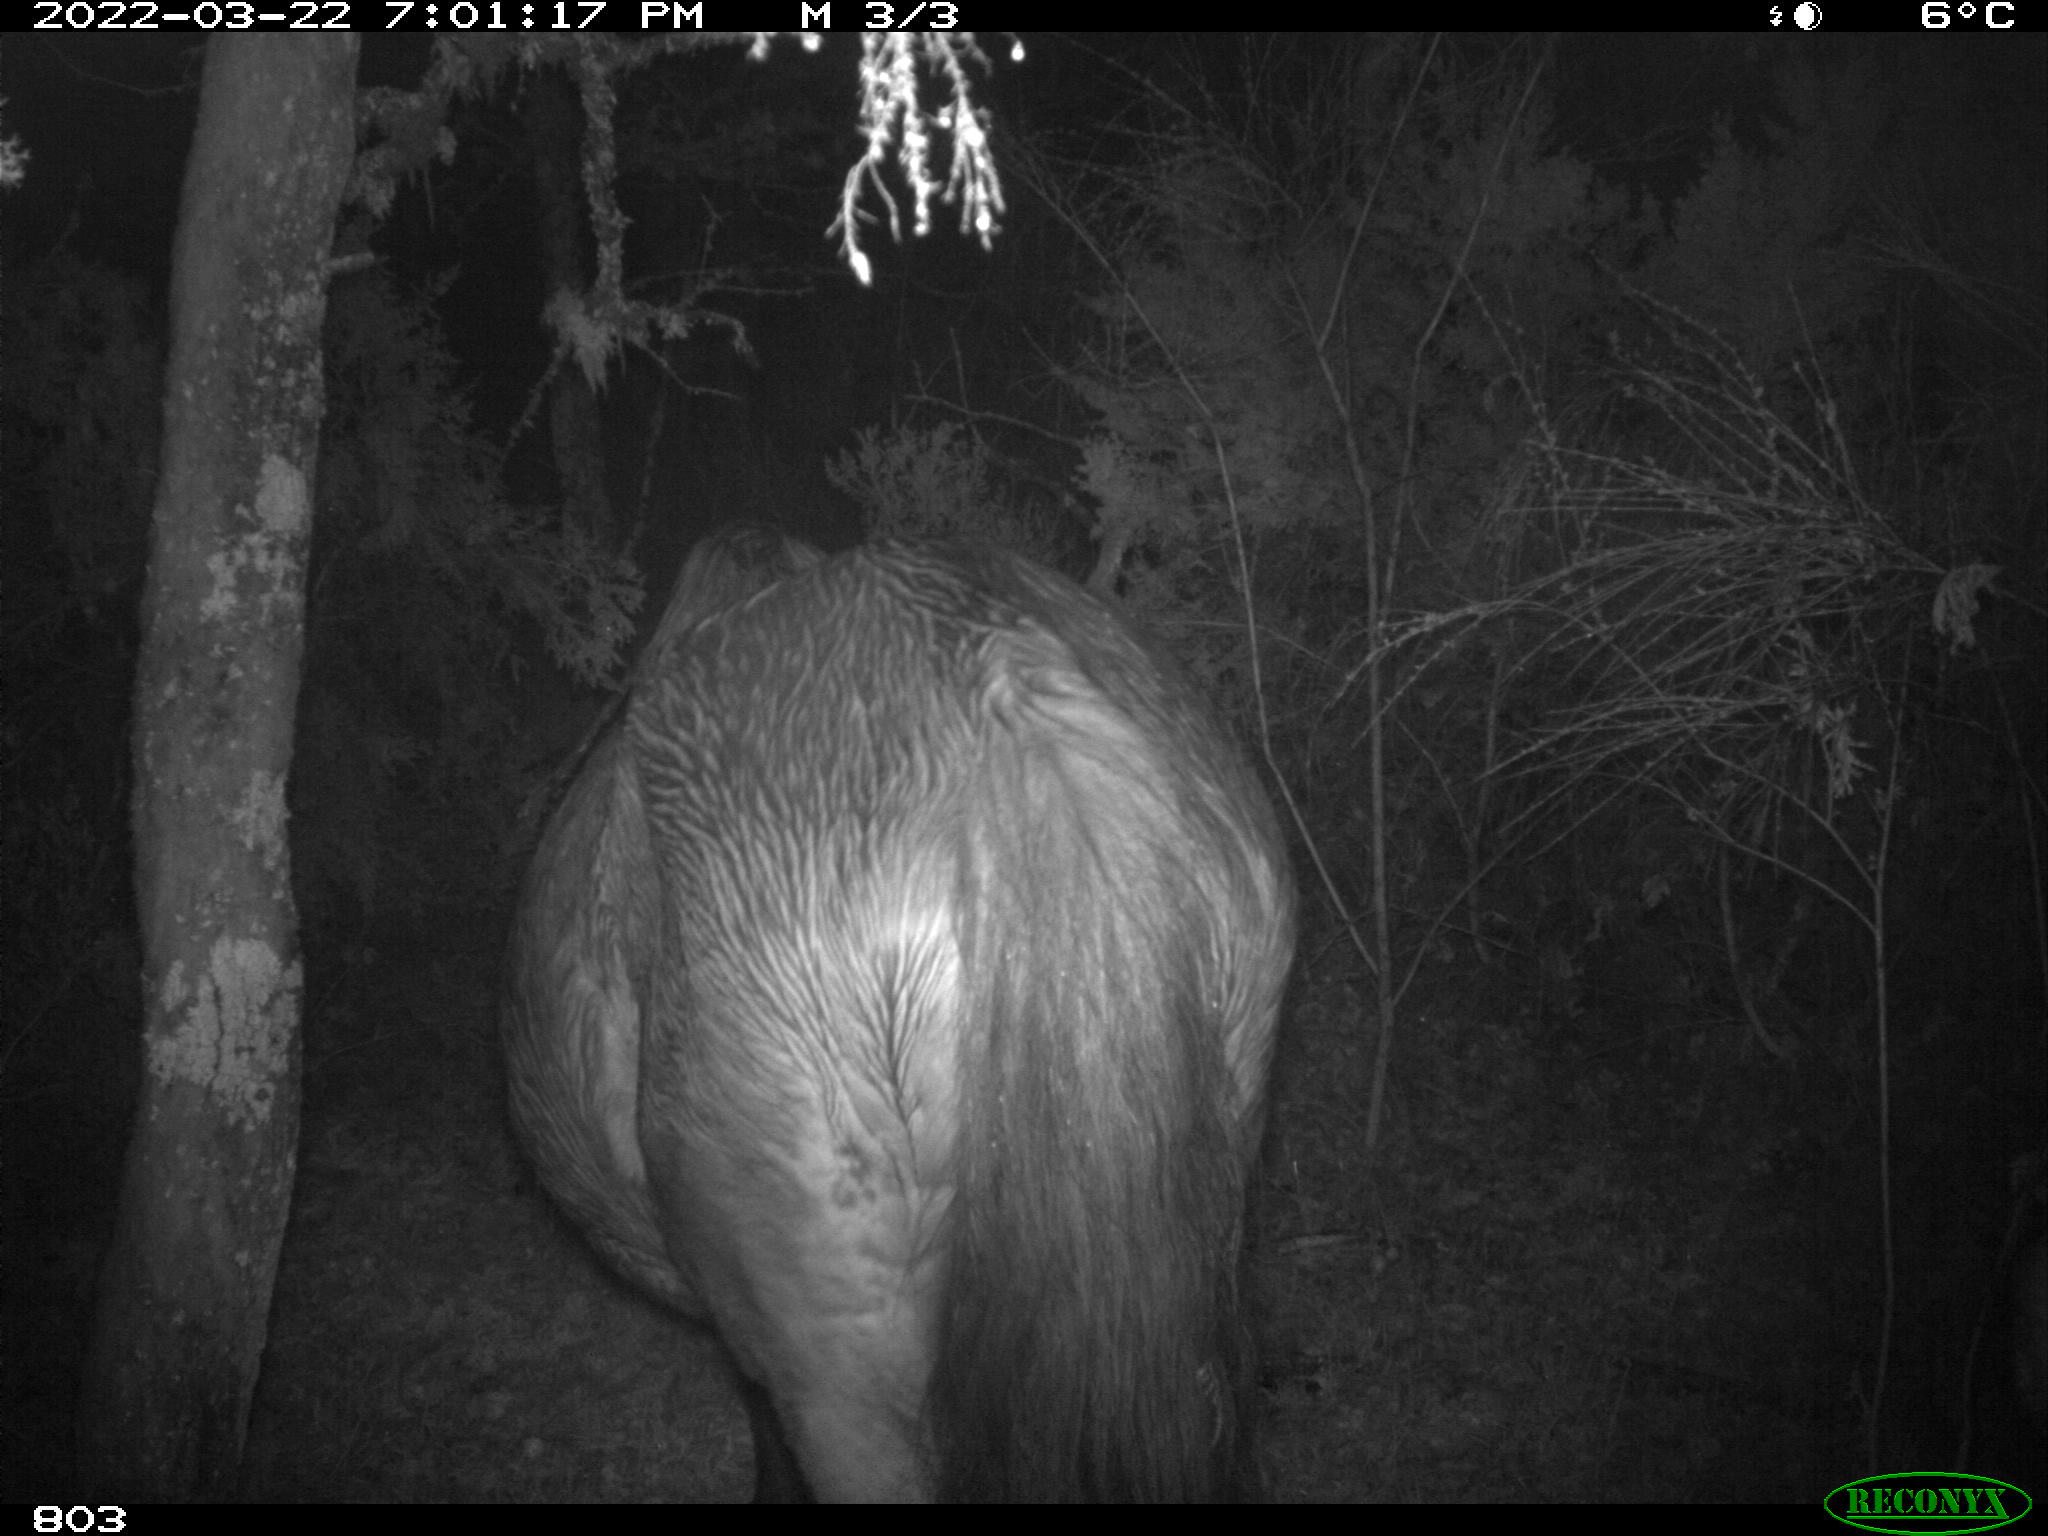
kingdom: Animalia
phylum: Chordata
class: Mammalia
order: Perissodactyla
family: Equidae
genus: Equus
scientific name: Equus caballus
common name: Horse
